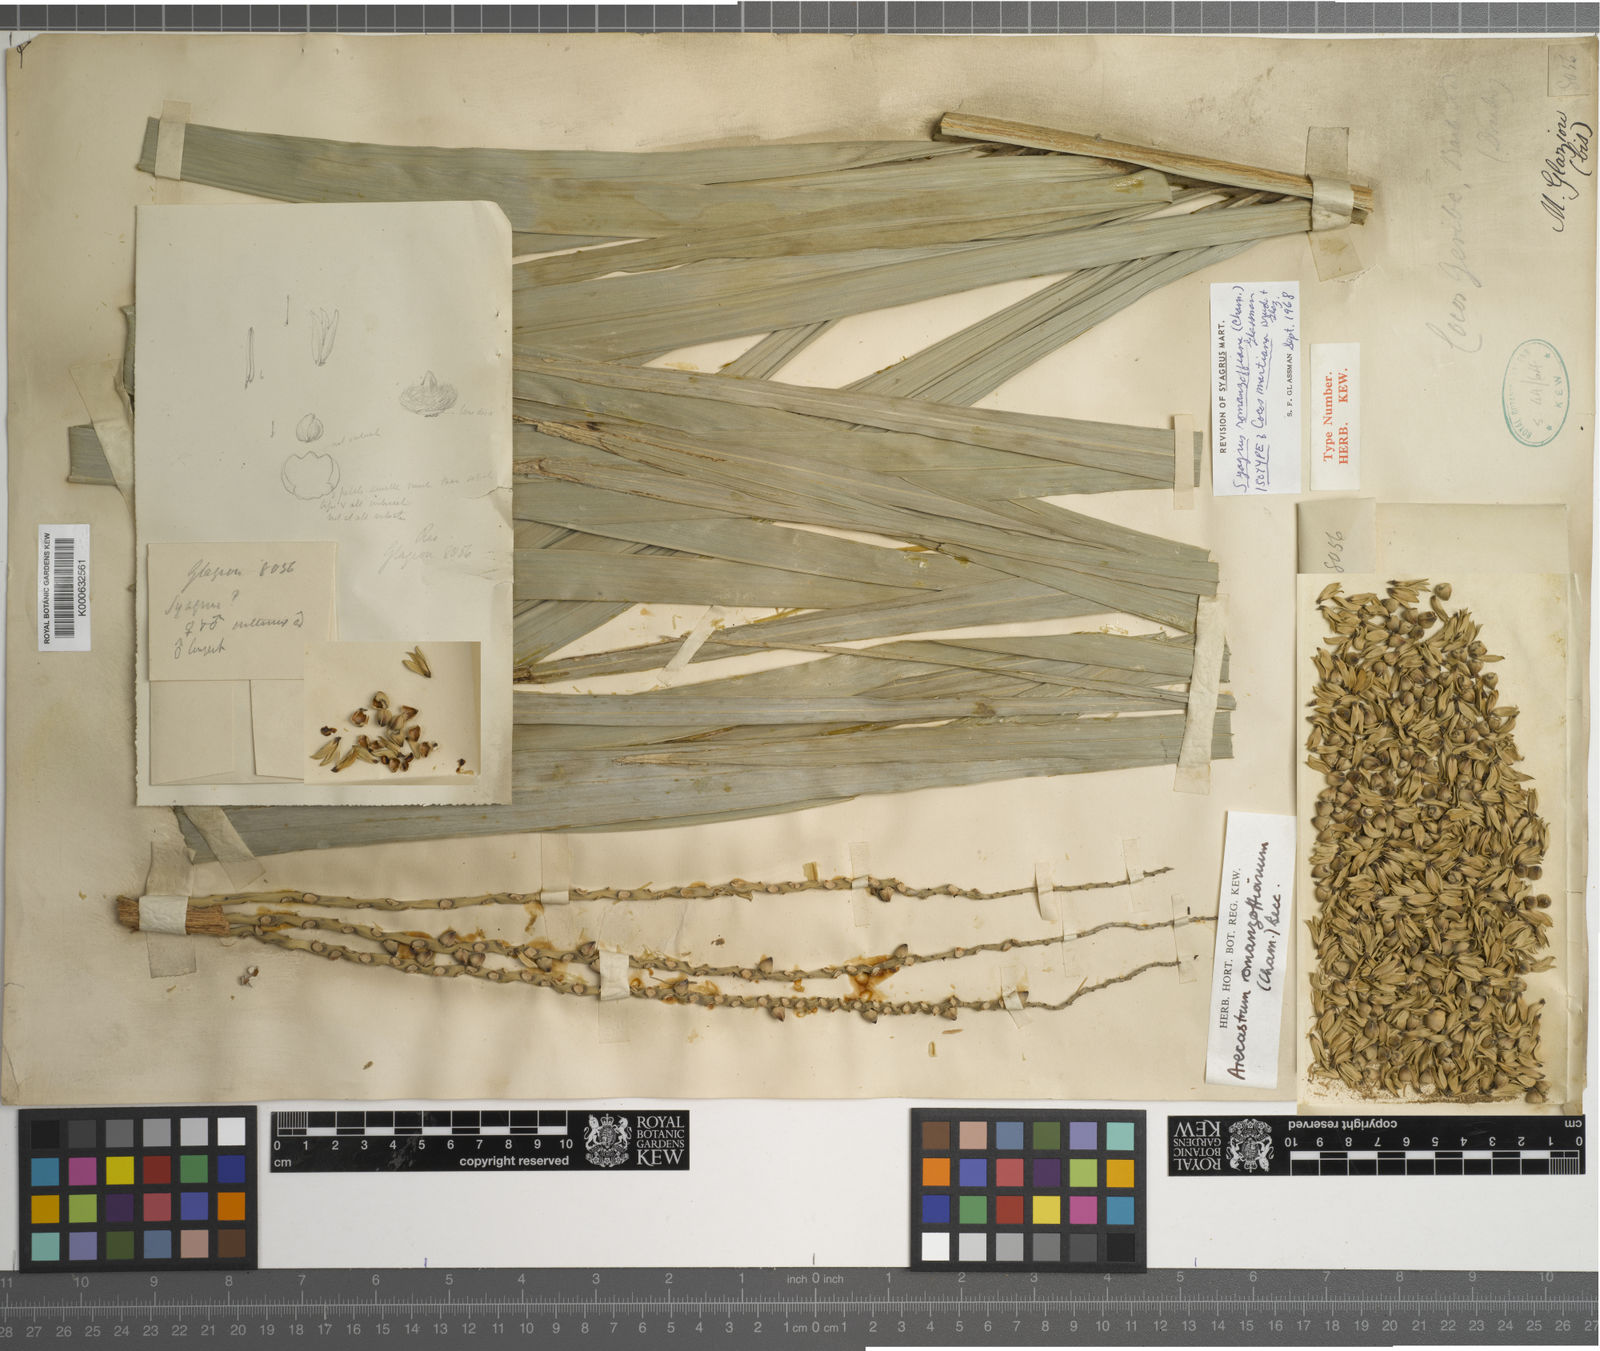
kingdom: Plantae
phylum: Tracheophyta
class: Liliopsida
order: Arecales
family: Arecaceae
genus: Syagrus
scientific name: Syagrus romanzoffiana
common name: Queen palm
